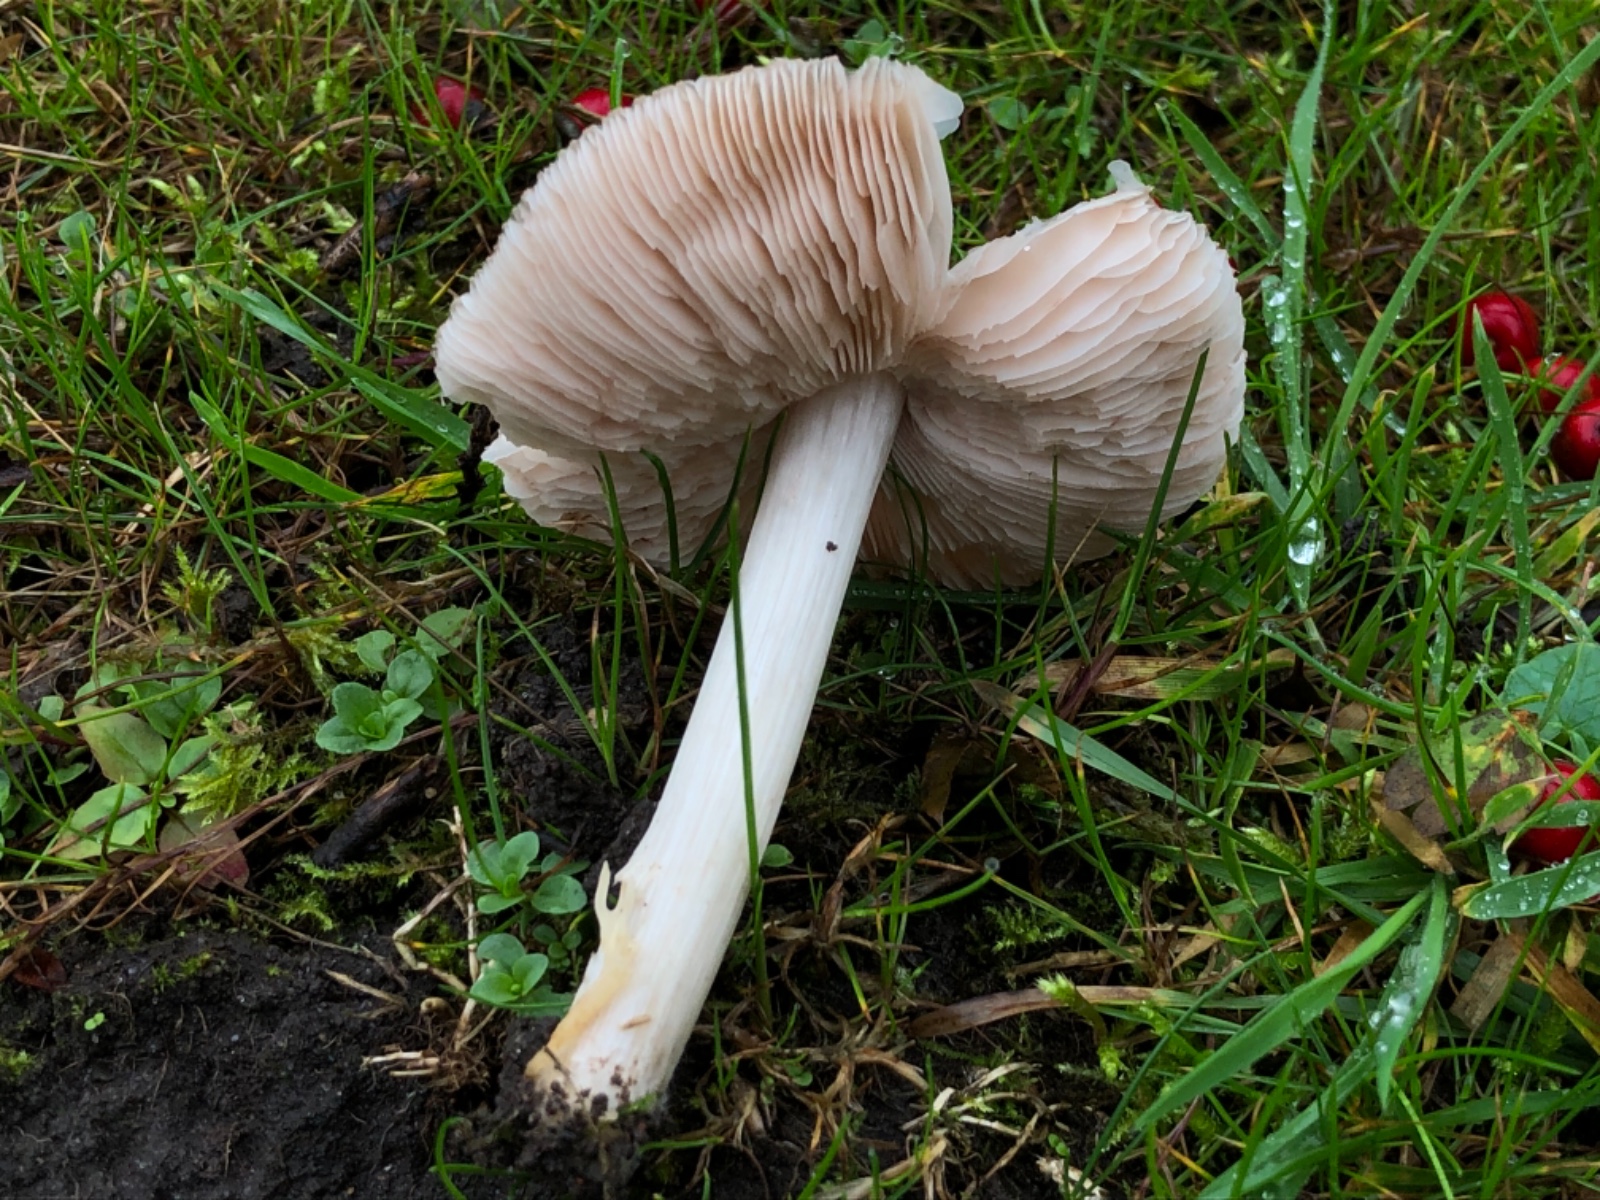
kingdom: Fungi
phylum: Basidiomycota
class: Agaricomycetes
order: Agaricales
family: Entolomataceae
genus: Entoloma
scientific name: Entoloma prunuloides
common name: mel-rødblad
